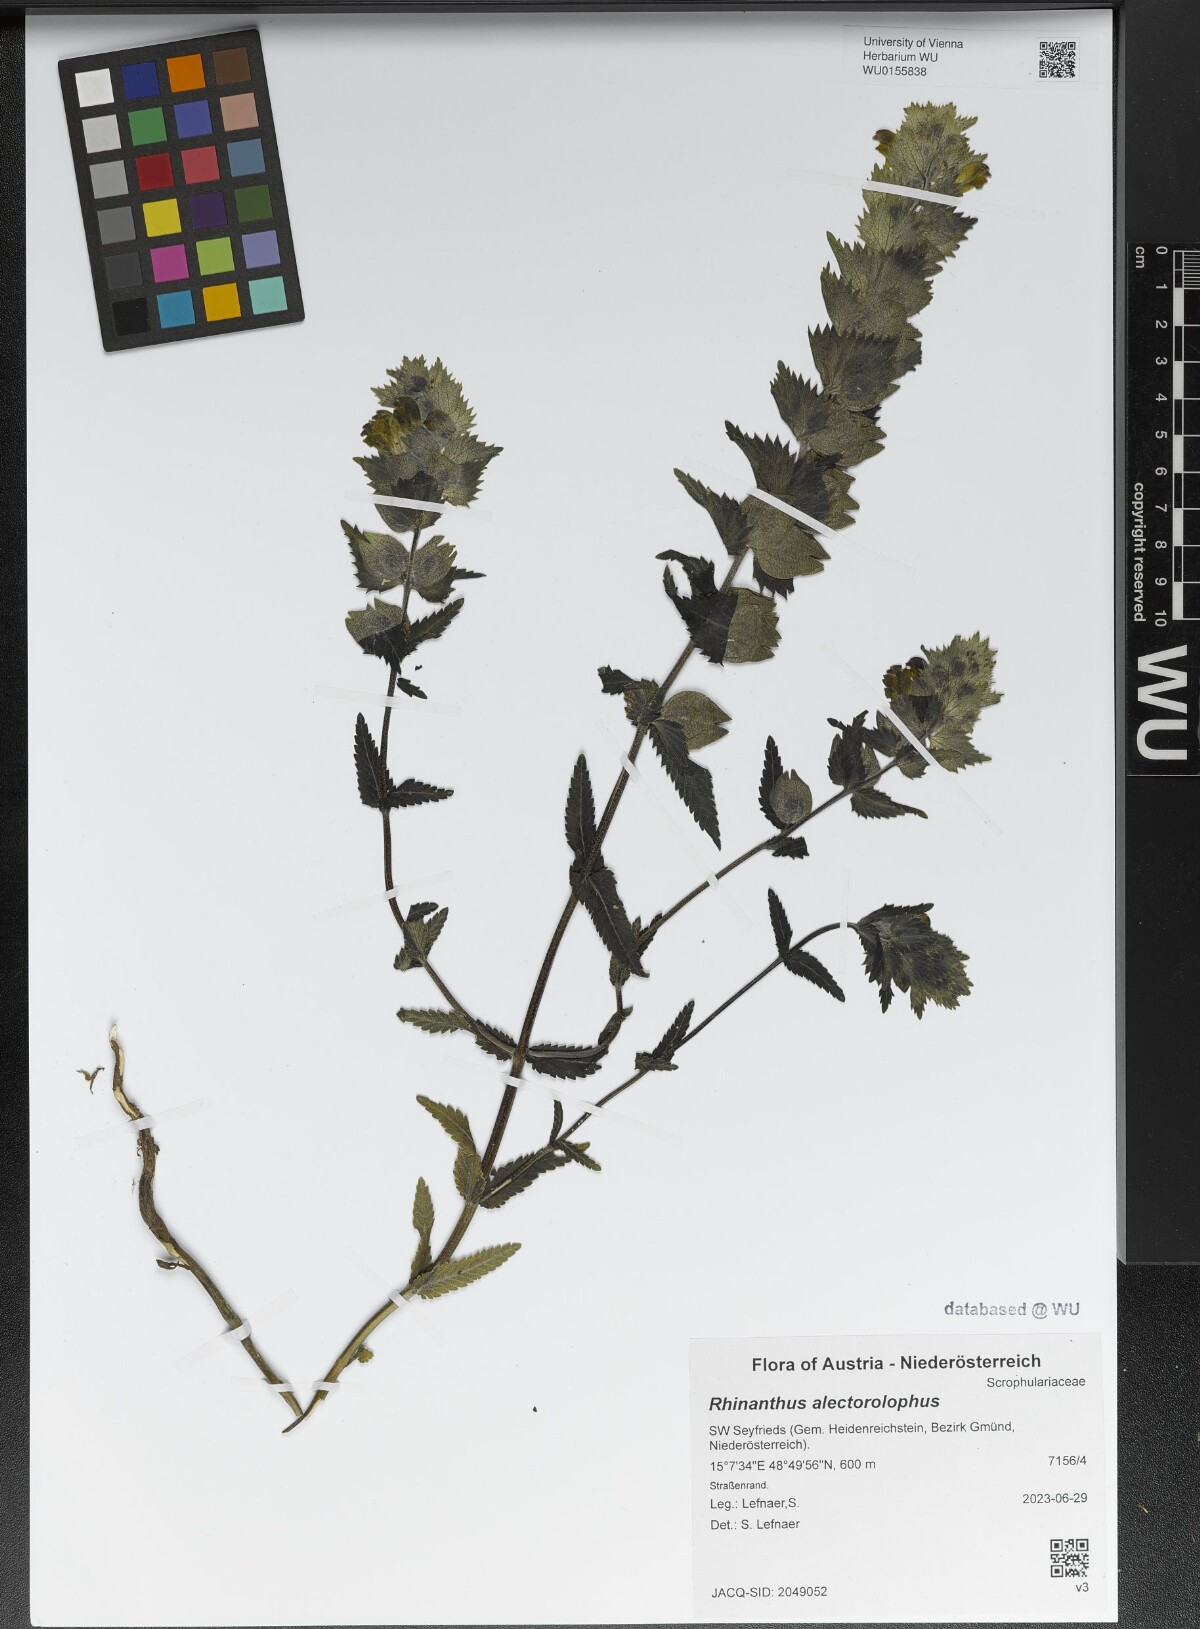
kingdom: Plantae
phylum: Tracheophyta
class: Magnoliopsida
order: Lamiales
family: Orobanchaceae
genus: Rhinanthus
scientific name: Rhinanthus alectorolophus
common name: Greater yellow-rattle
